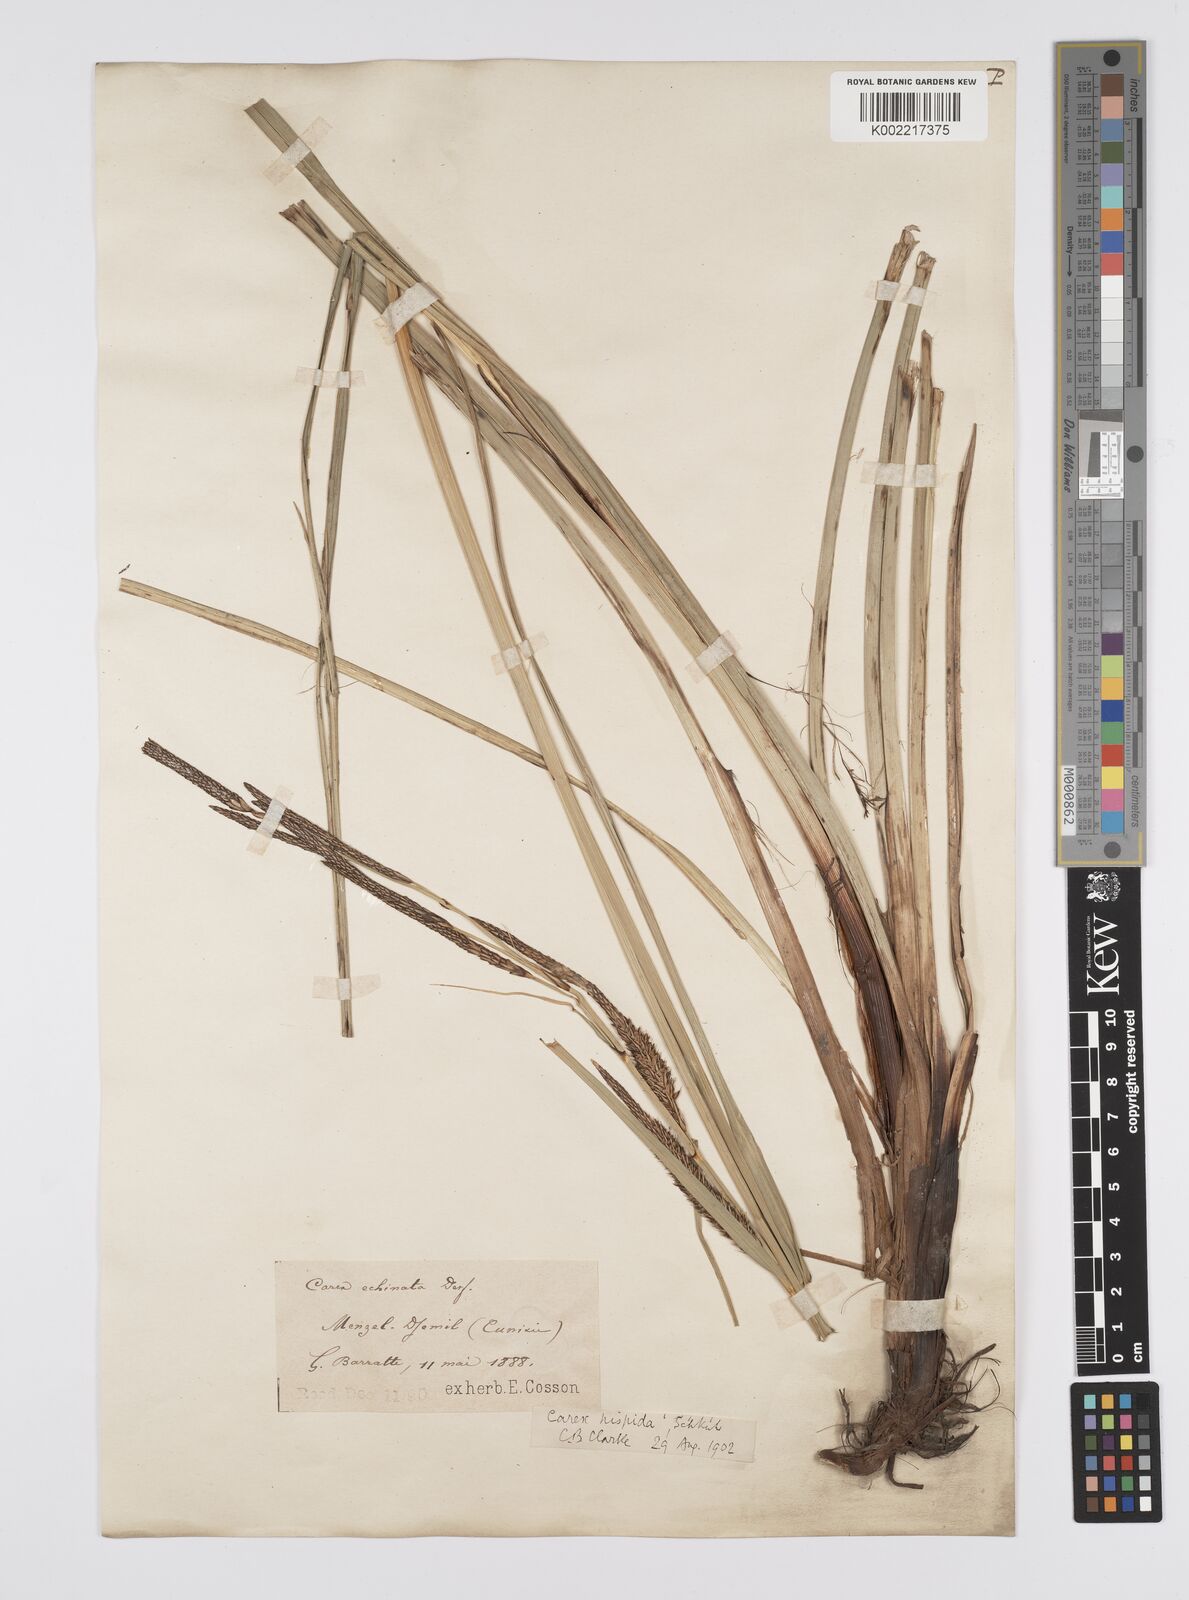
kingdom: Plantae
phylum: Tracheophyta
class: Liliopsida
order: Poales
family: Cyperaceae
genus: Carex
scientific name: Carex hispida
